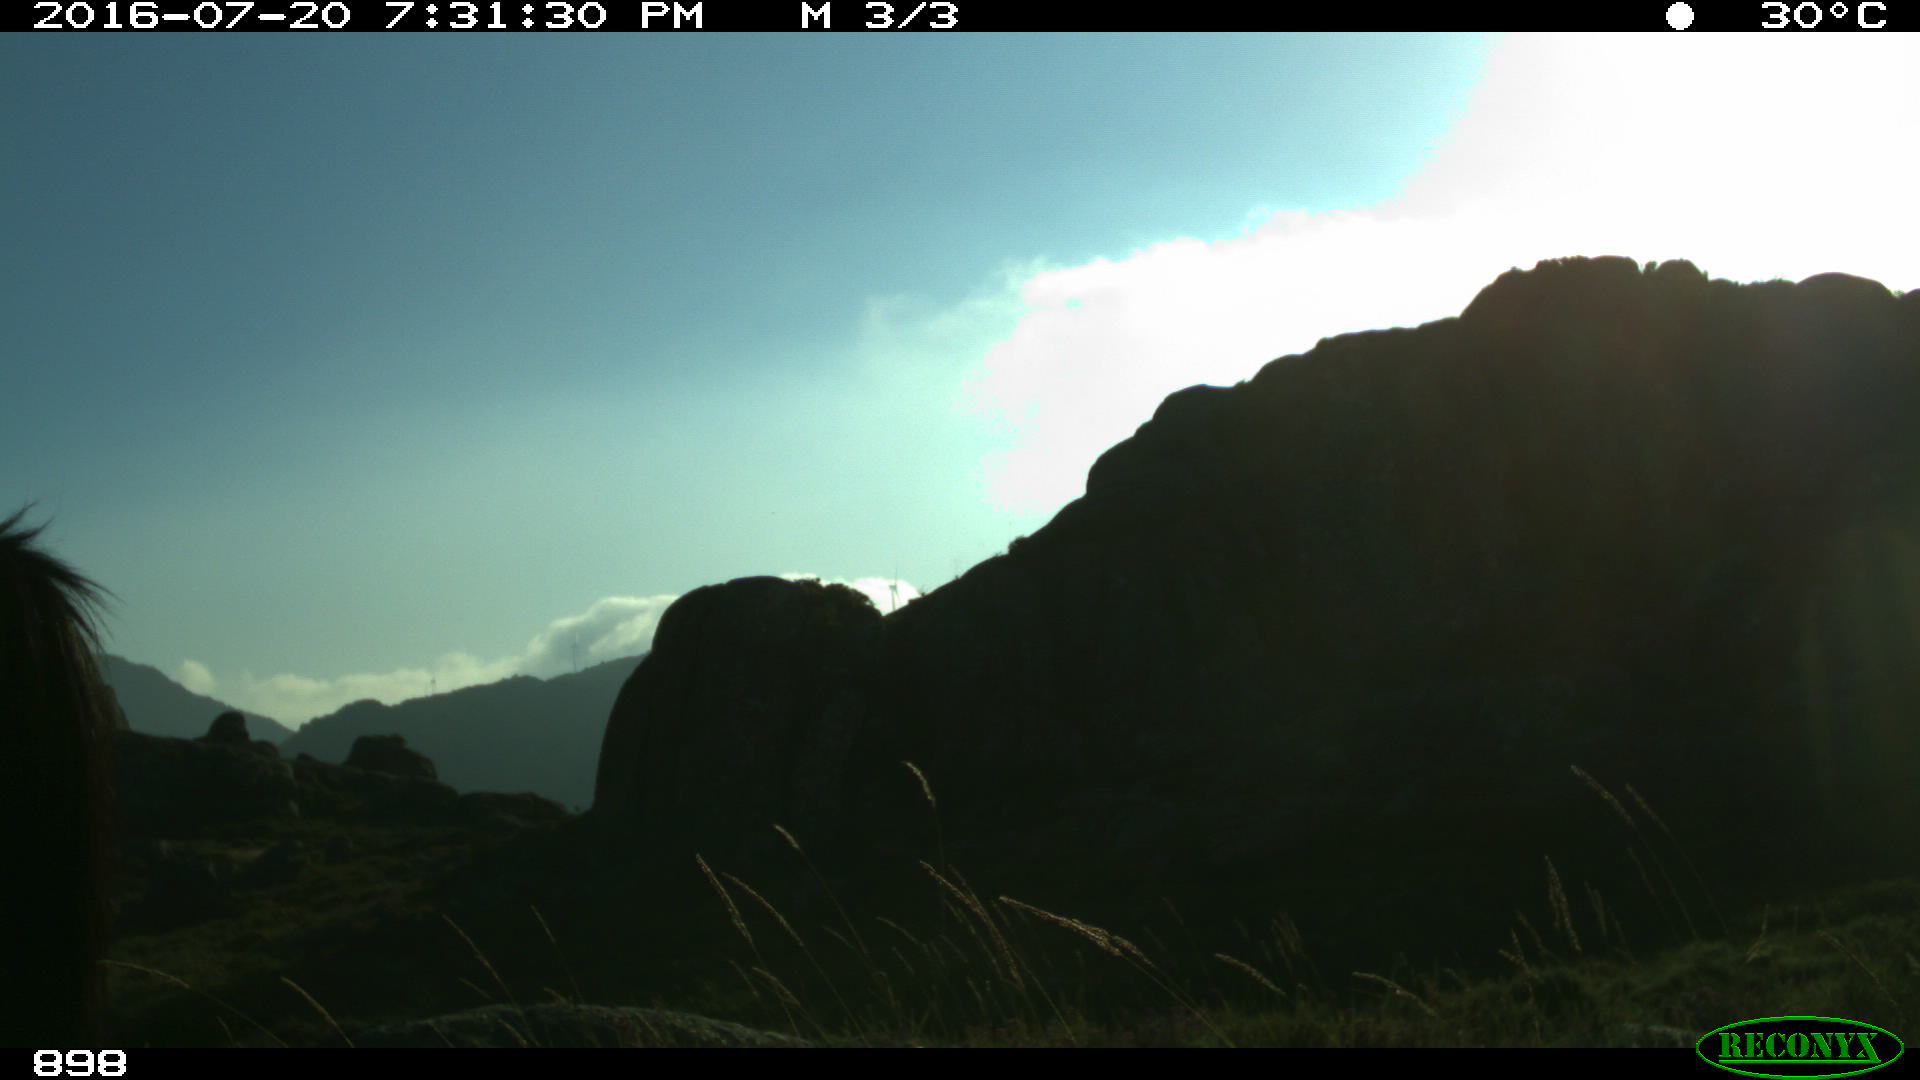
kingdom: Animalia
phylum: Chordata
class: Mammalia
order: Perissodactyla
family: Equidae
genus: Equus
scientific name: Equus caballus
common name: Horse
